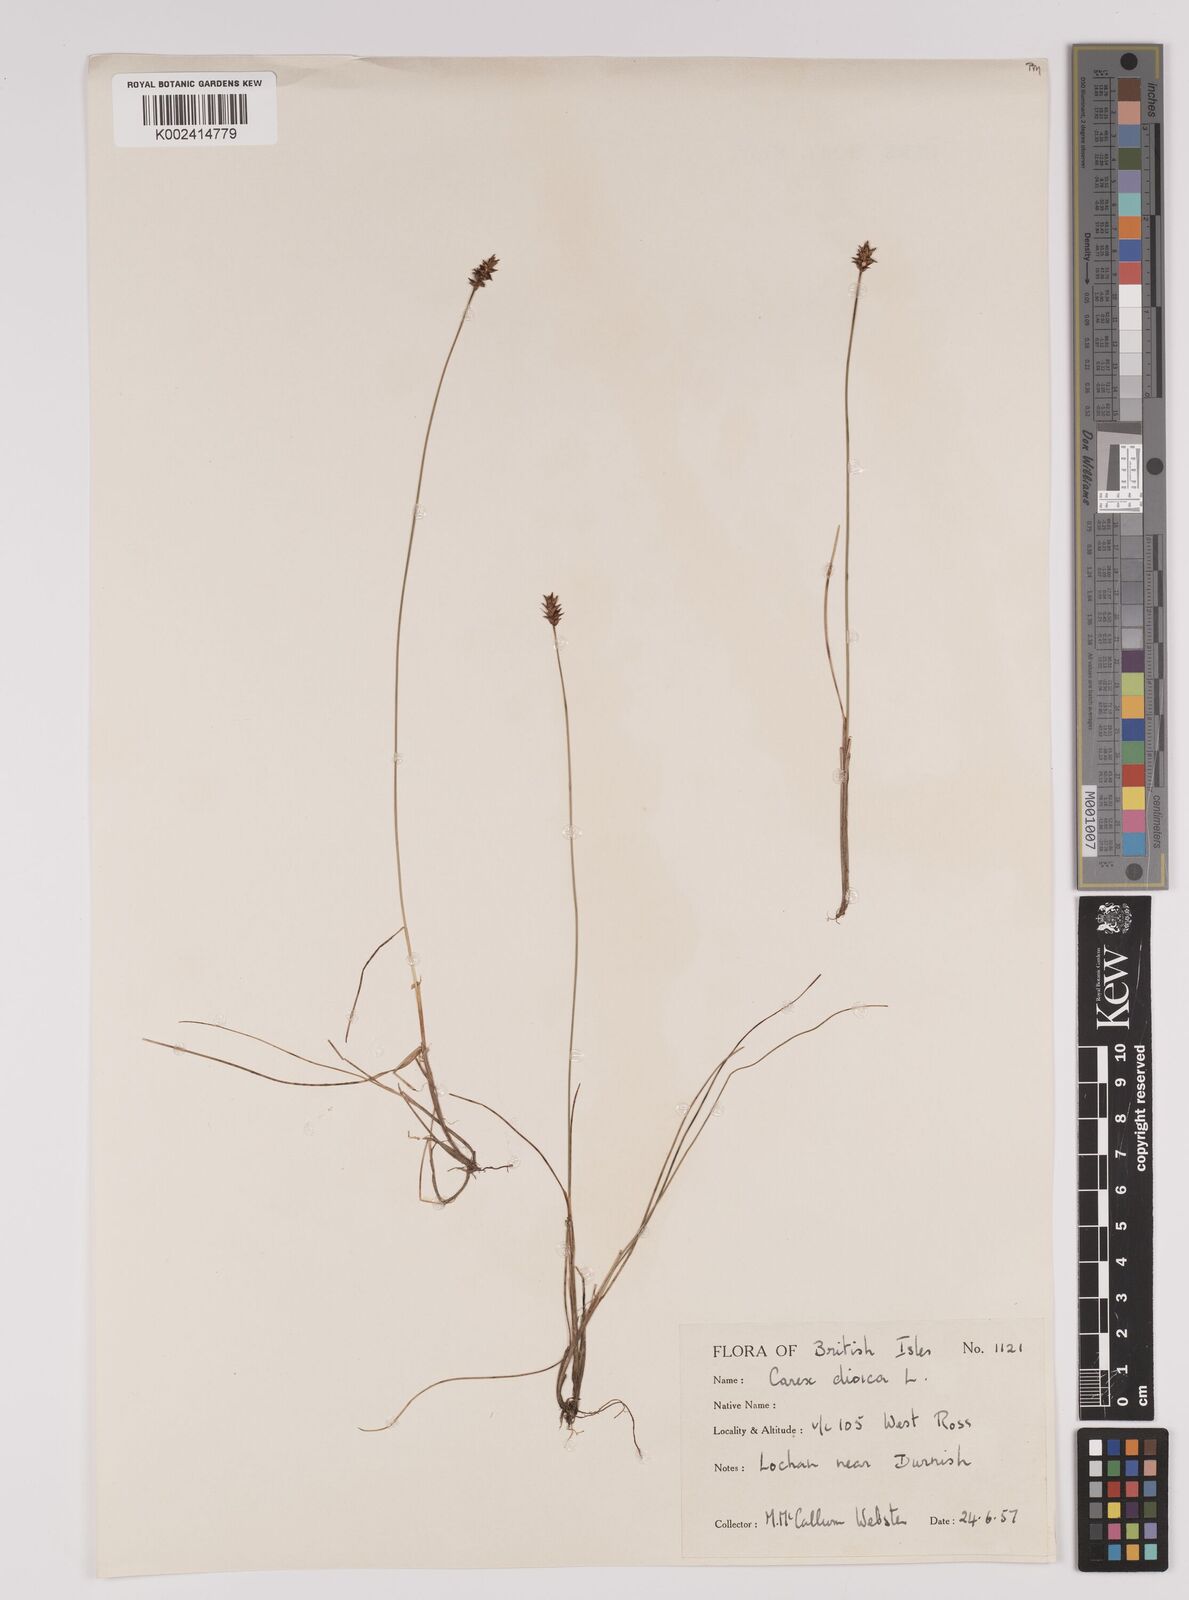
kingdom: Plantae
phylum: Tracheophyta
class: Liliopsida
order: Poales
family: Cyperaceae
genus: Carex
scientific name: Carex dioica
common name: Dioecious sedge
